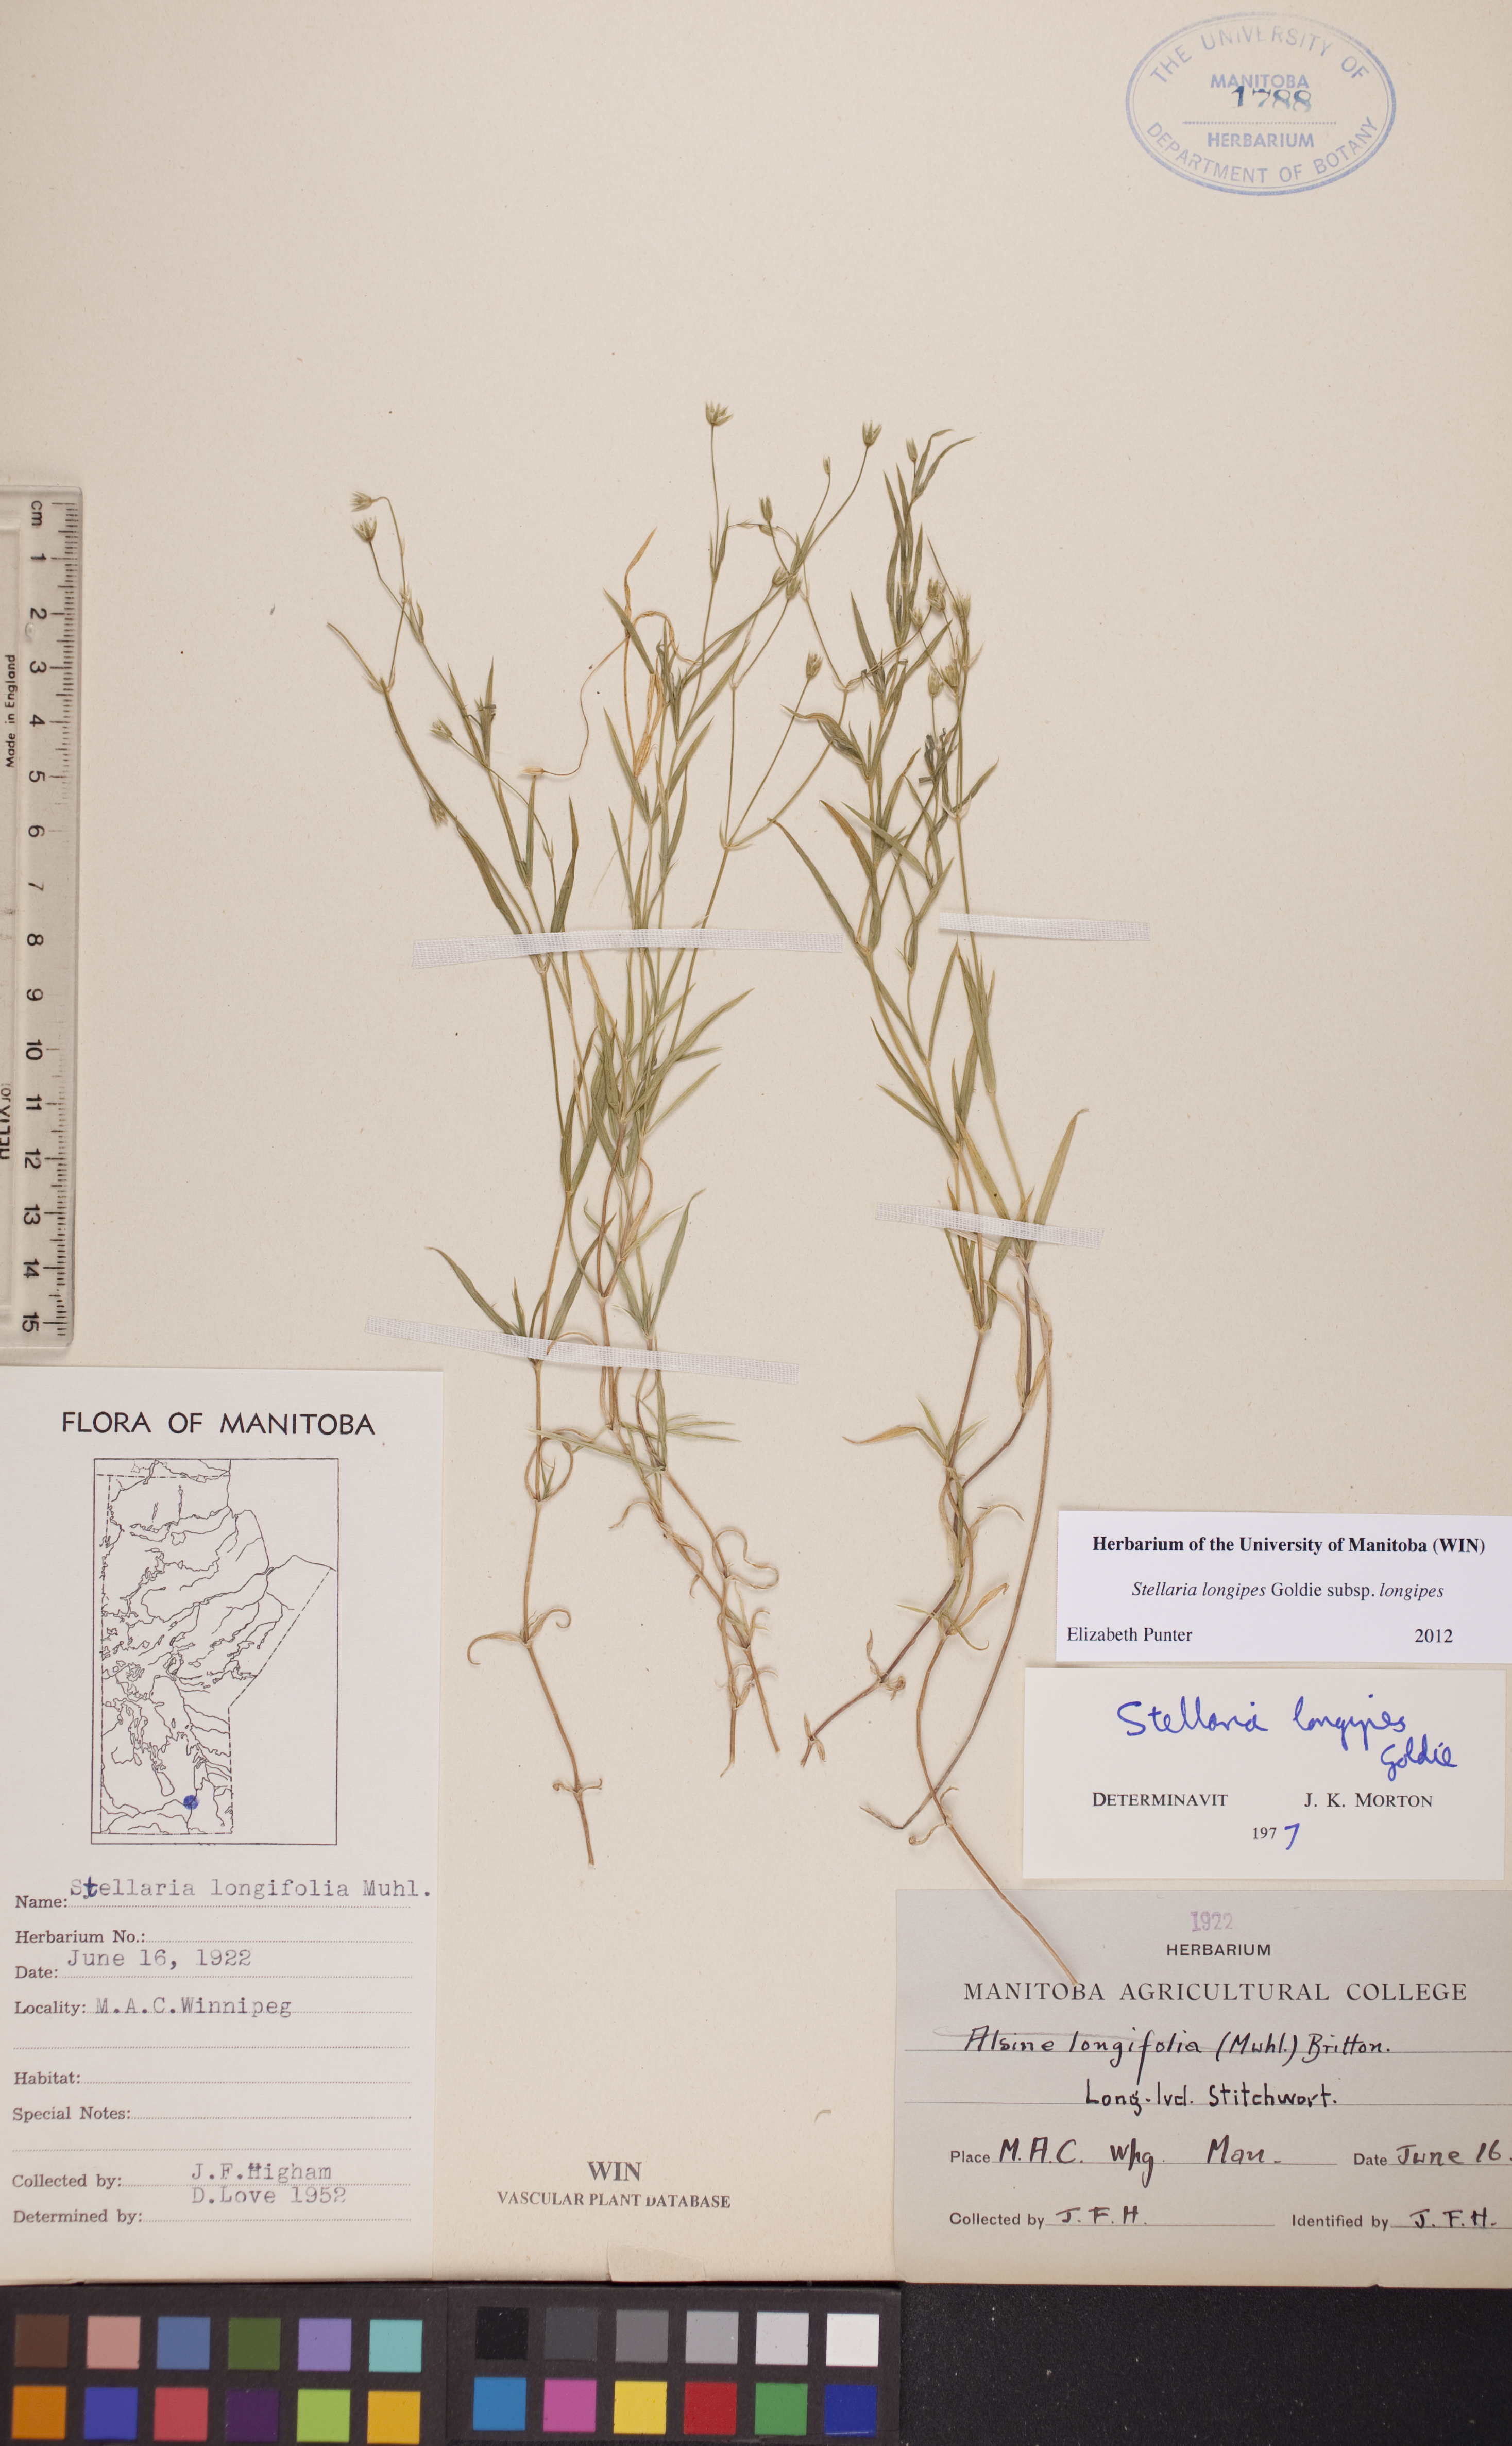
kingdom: Plantae
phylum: Tracheophyta
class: Magnoliopsida
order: Caryophyllales
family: Caryophyllaceae
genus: Stellaria
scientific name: Stellaria longipes
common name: Goldie's starwort
